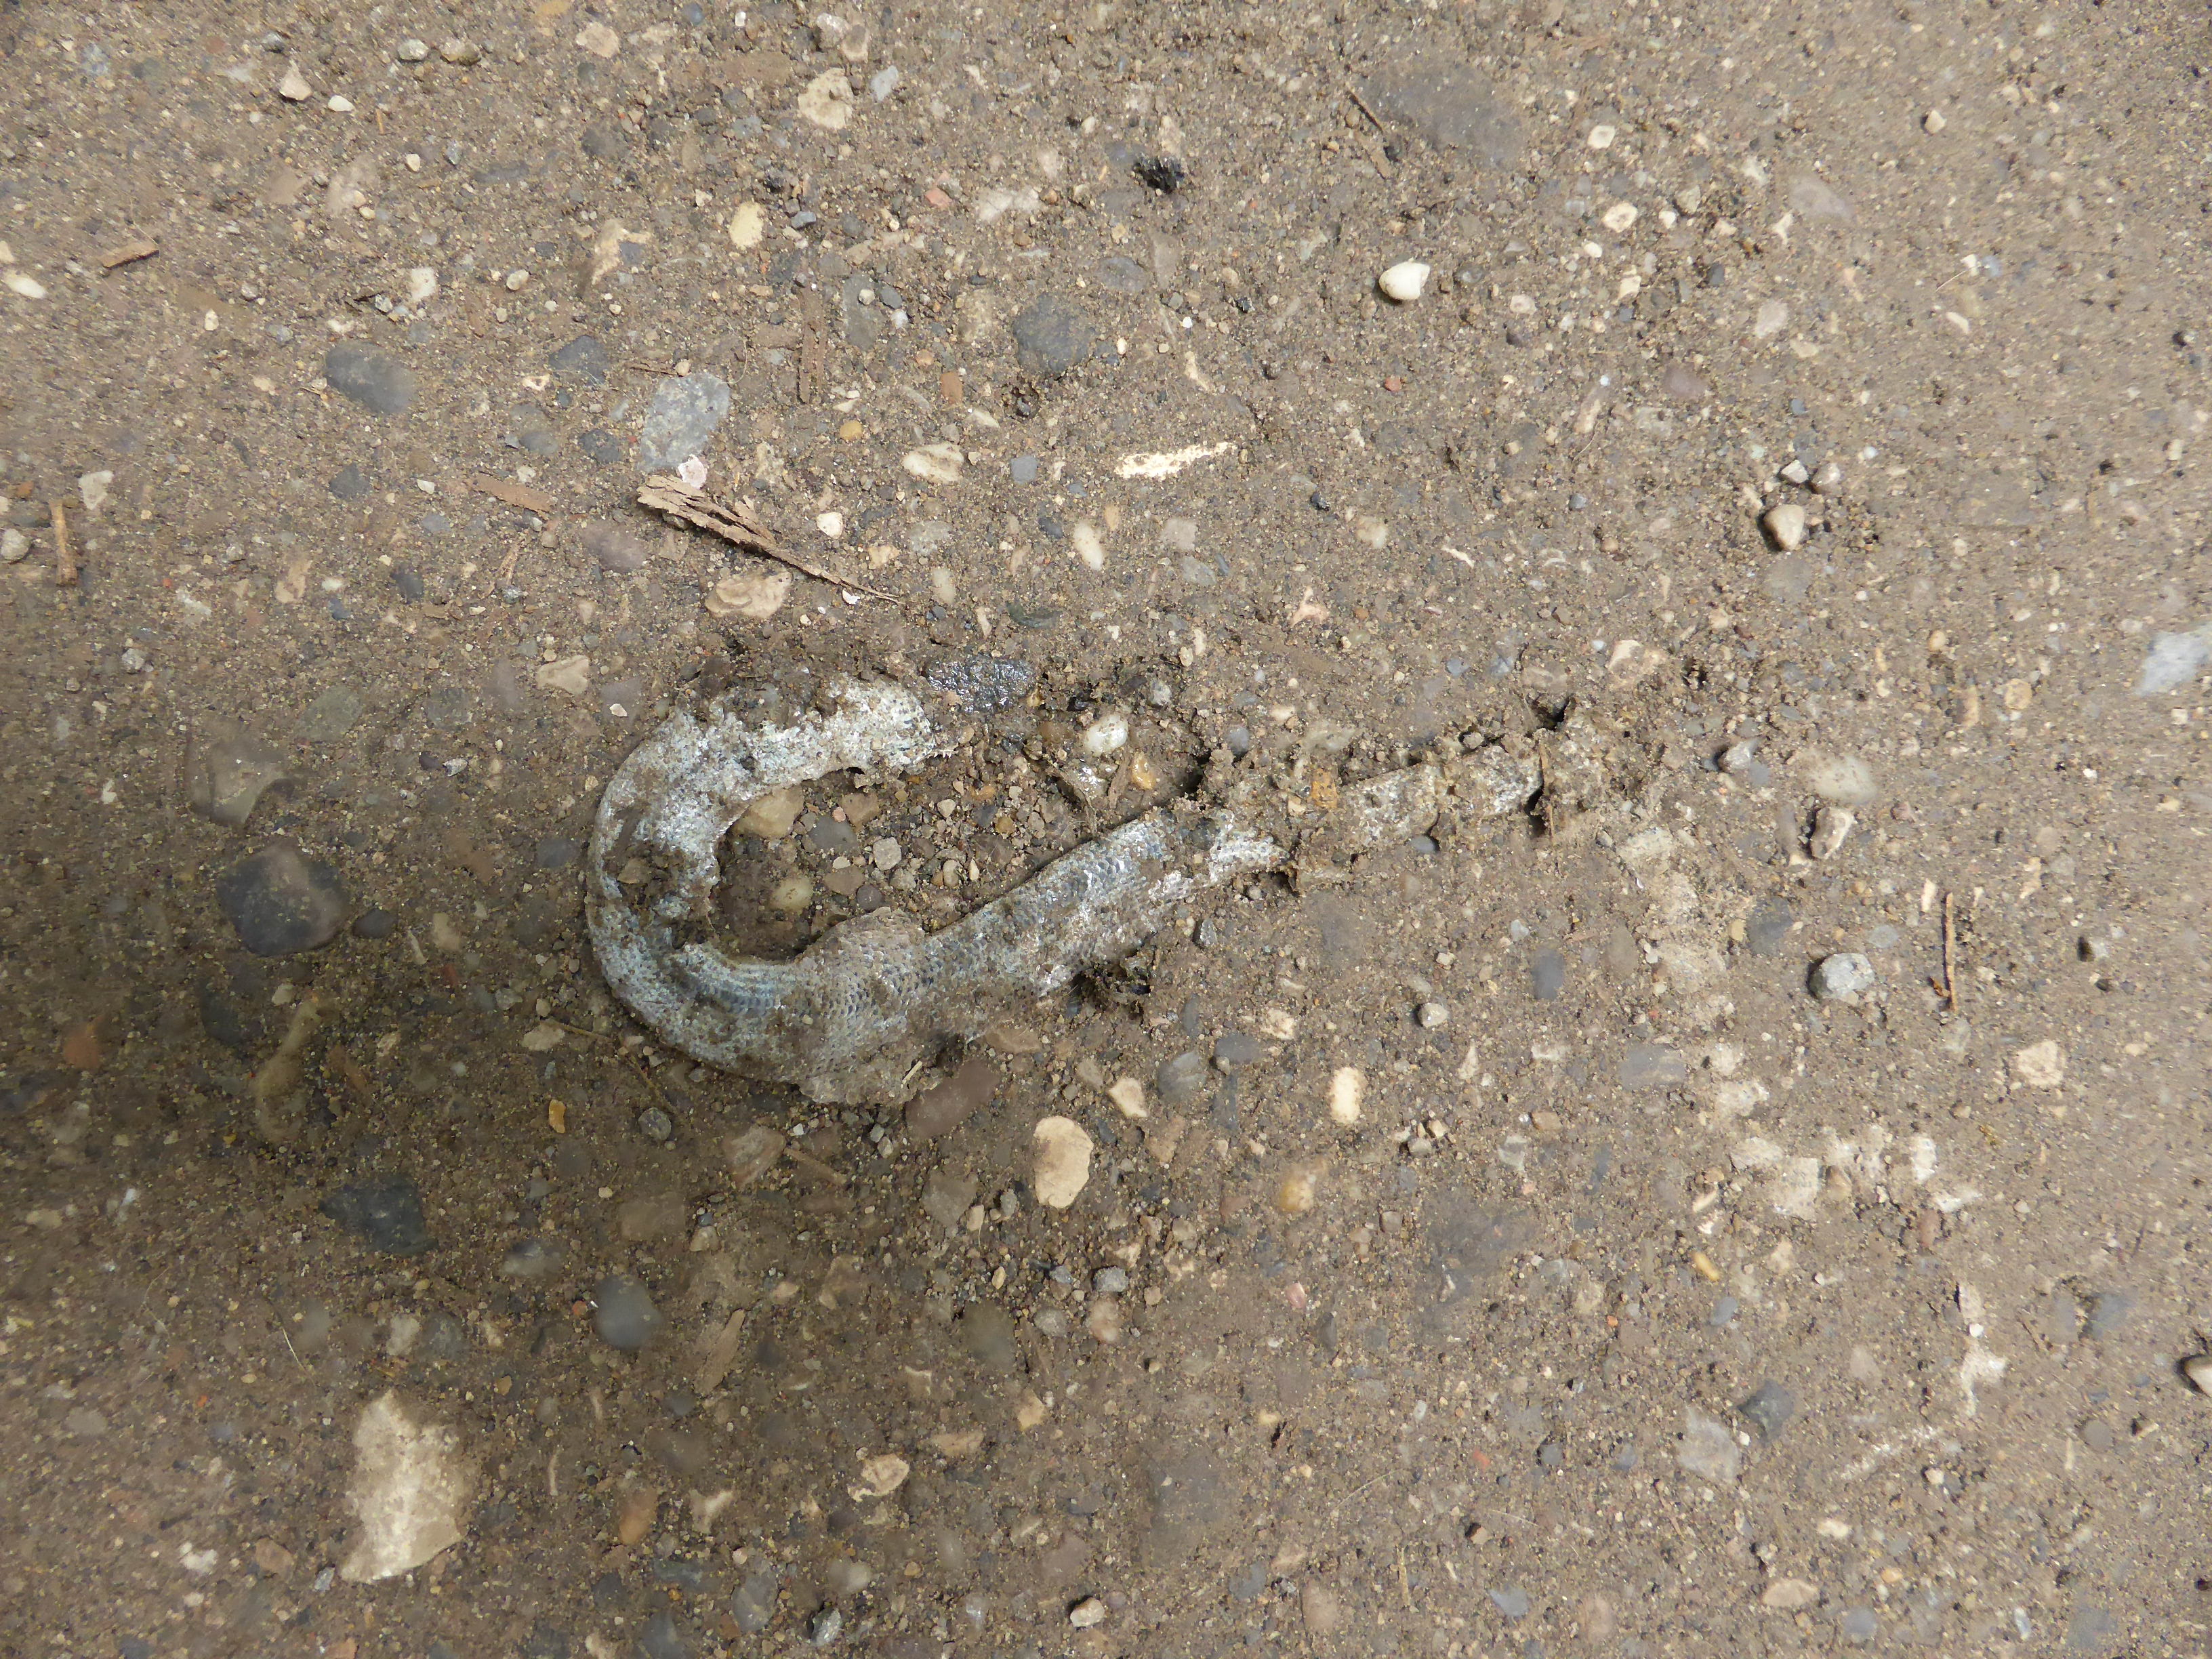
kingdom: Animalia
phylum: Chordata
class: Squamata
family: Anguidae
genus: Anguis
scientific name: Anguis fragilis
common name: Slow worm
